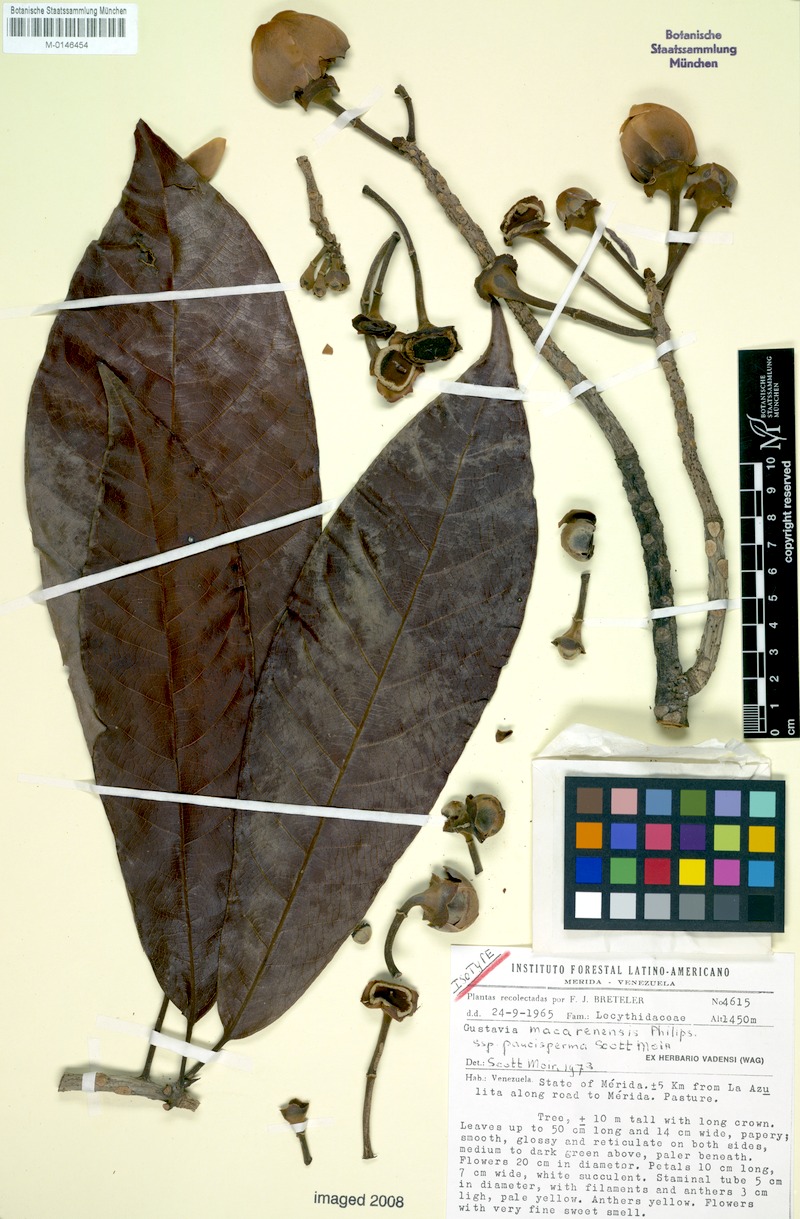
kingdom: Plantae
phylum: Tracheophyta
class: Magnoliopsida
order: Ericales
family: Lecythidaceae
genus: Gustavia
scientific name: Gustavia macarenensis
